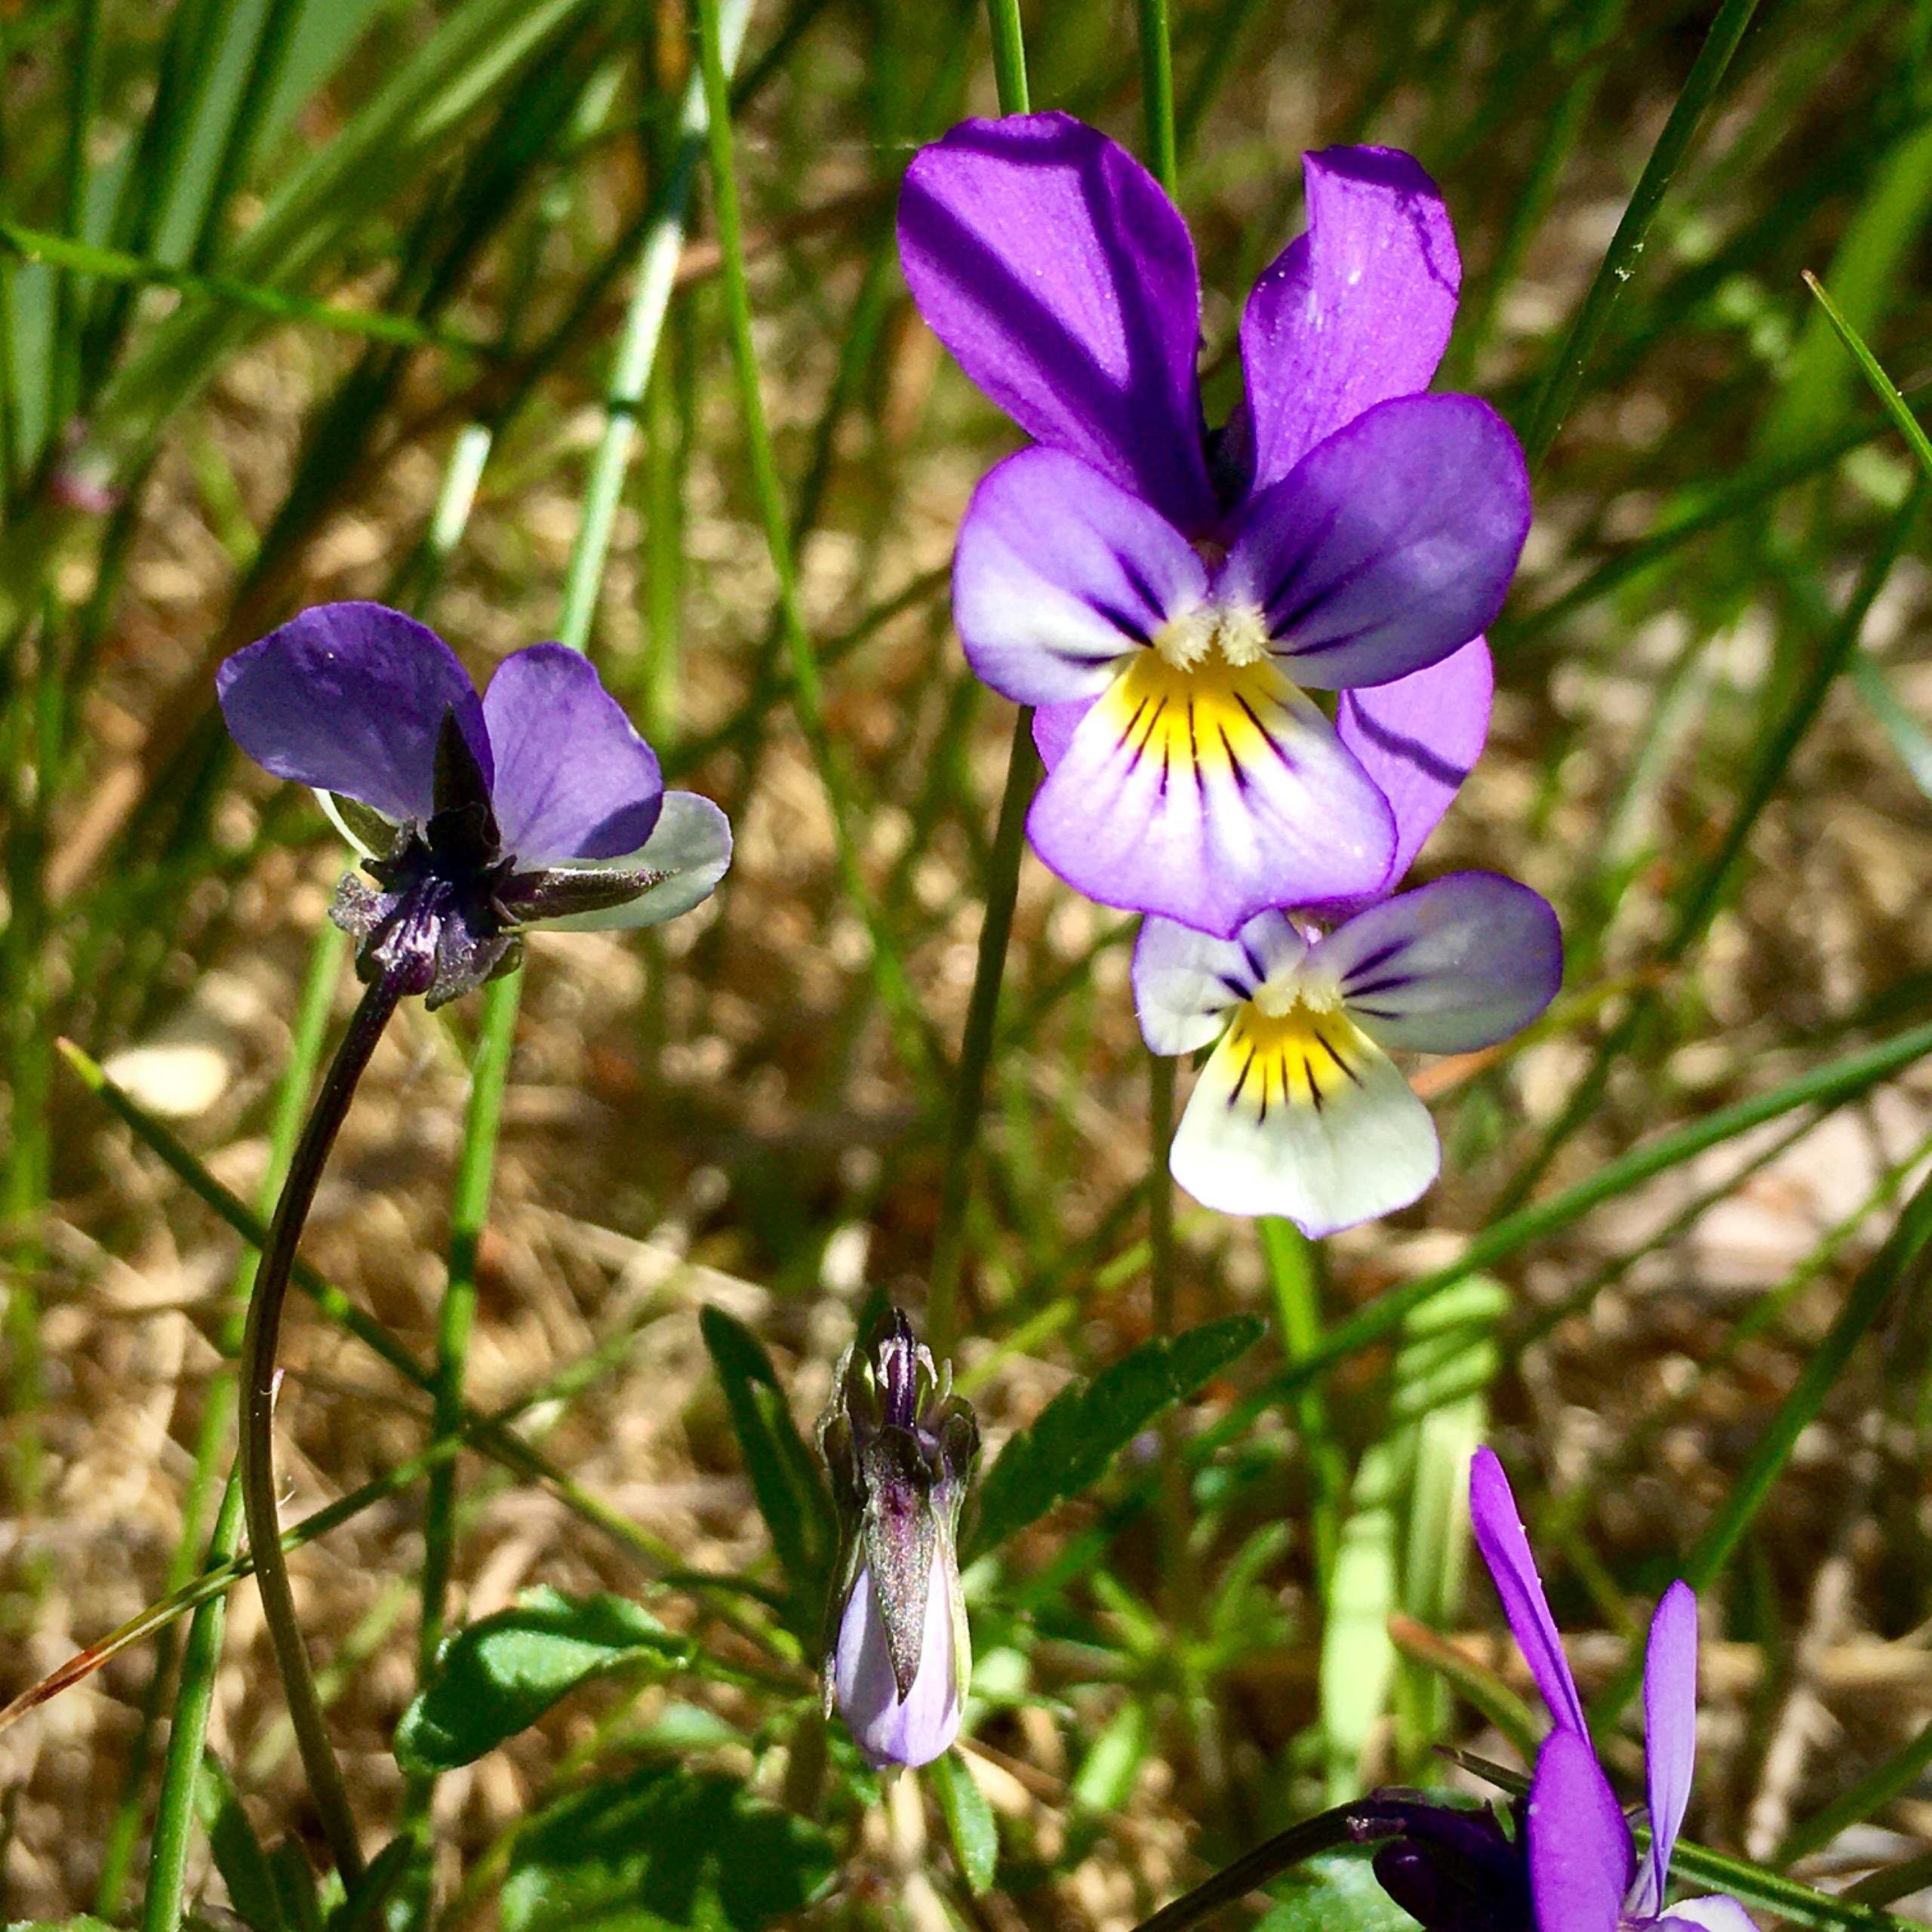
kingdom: Plantae
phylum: Tracheophyta
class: Magnoliopsida
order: Malpighiales
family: Violaceae
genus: Viola
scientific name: Viola tricolor
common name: Stedmoderblomst
